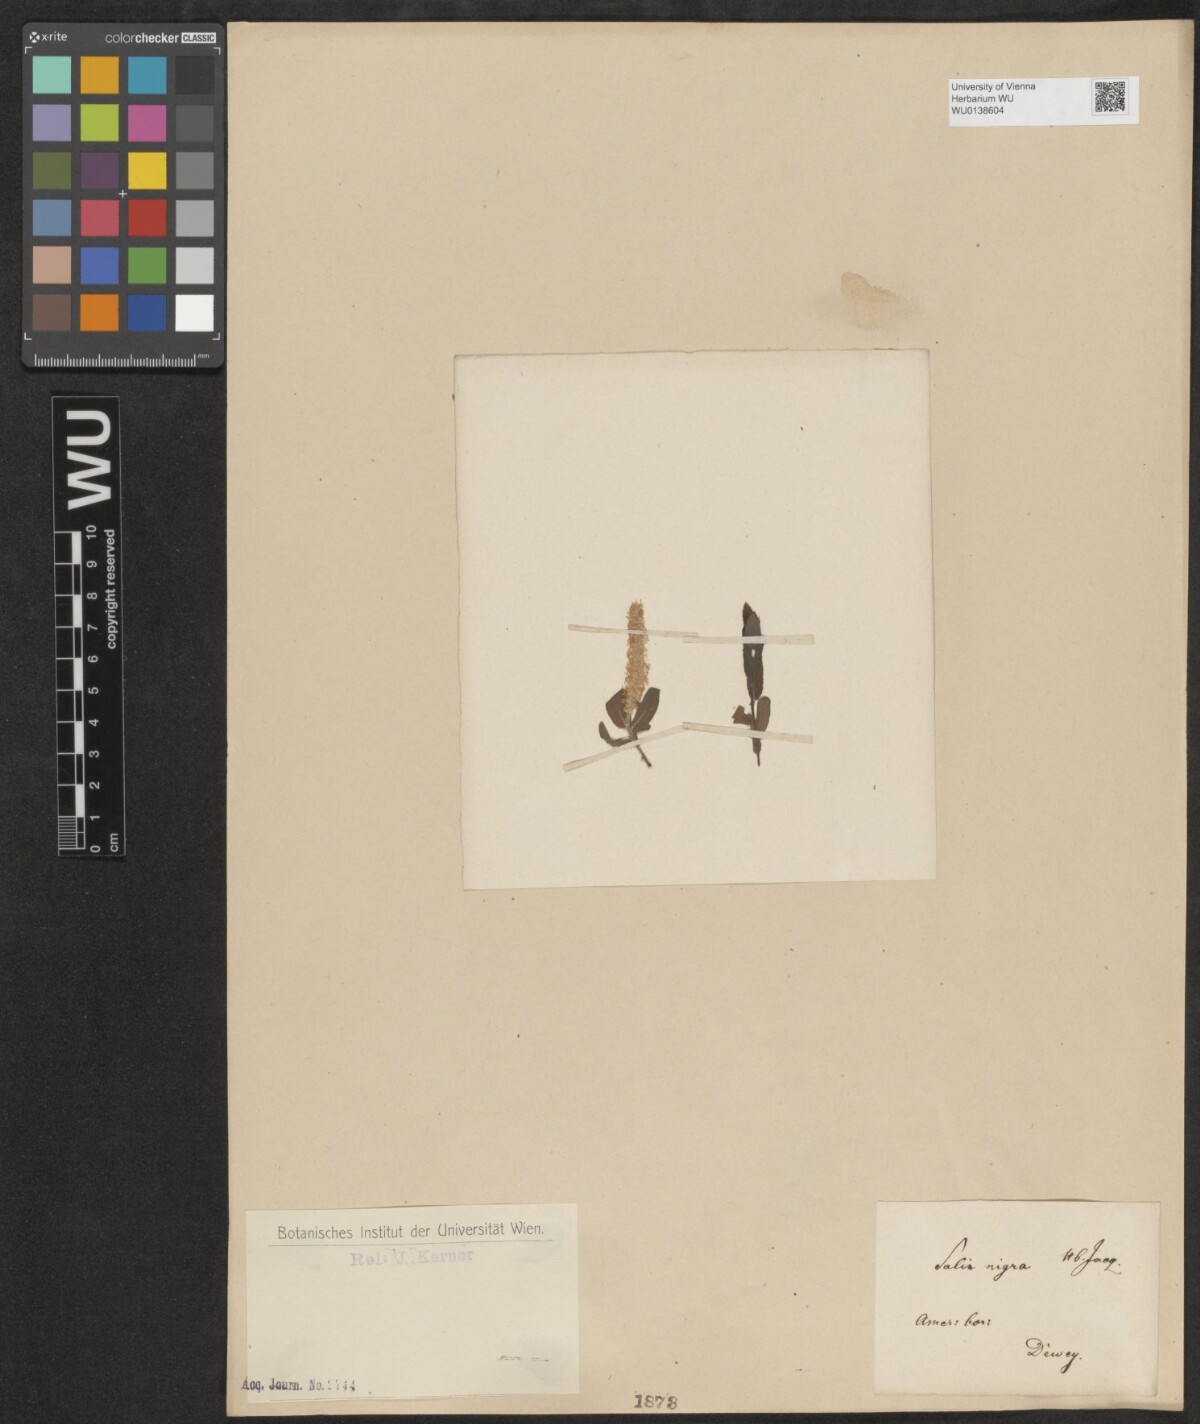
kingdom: Plantae
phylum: Tracheophyta
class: Magnoliopsida
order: Malpighiales
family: Salicaceae
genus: Salix
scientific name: Salix nigra
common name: Black willow
